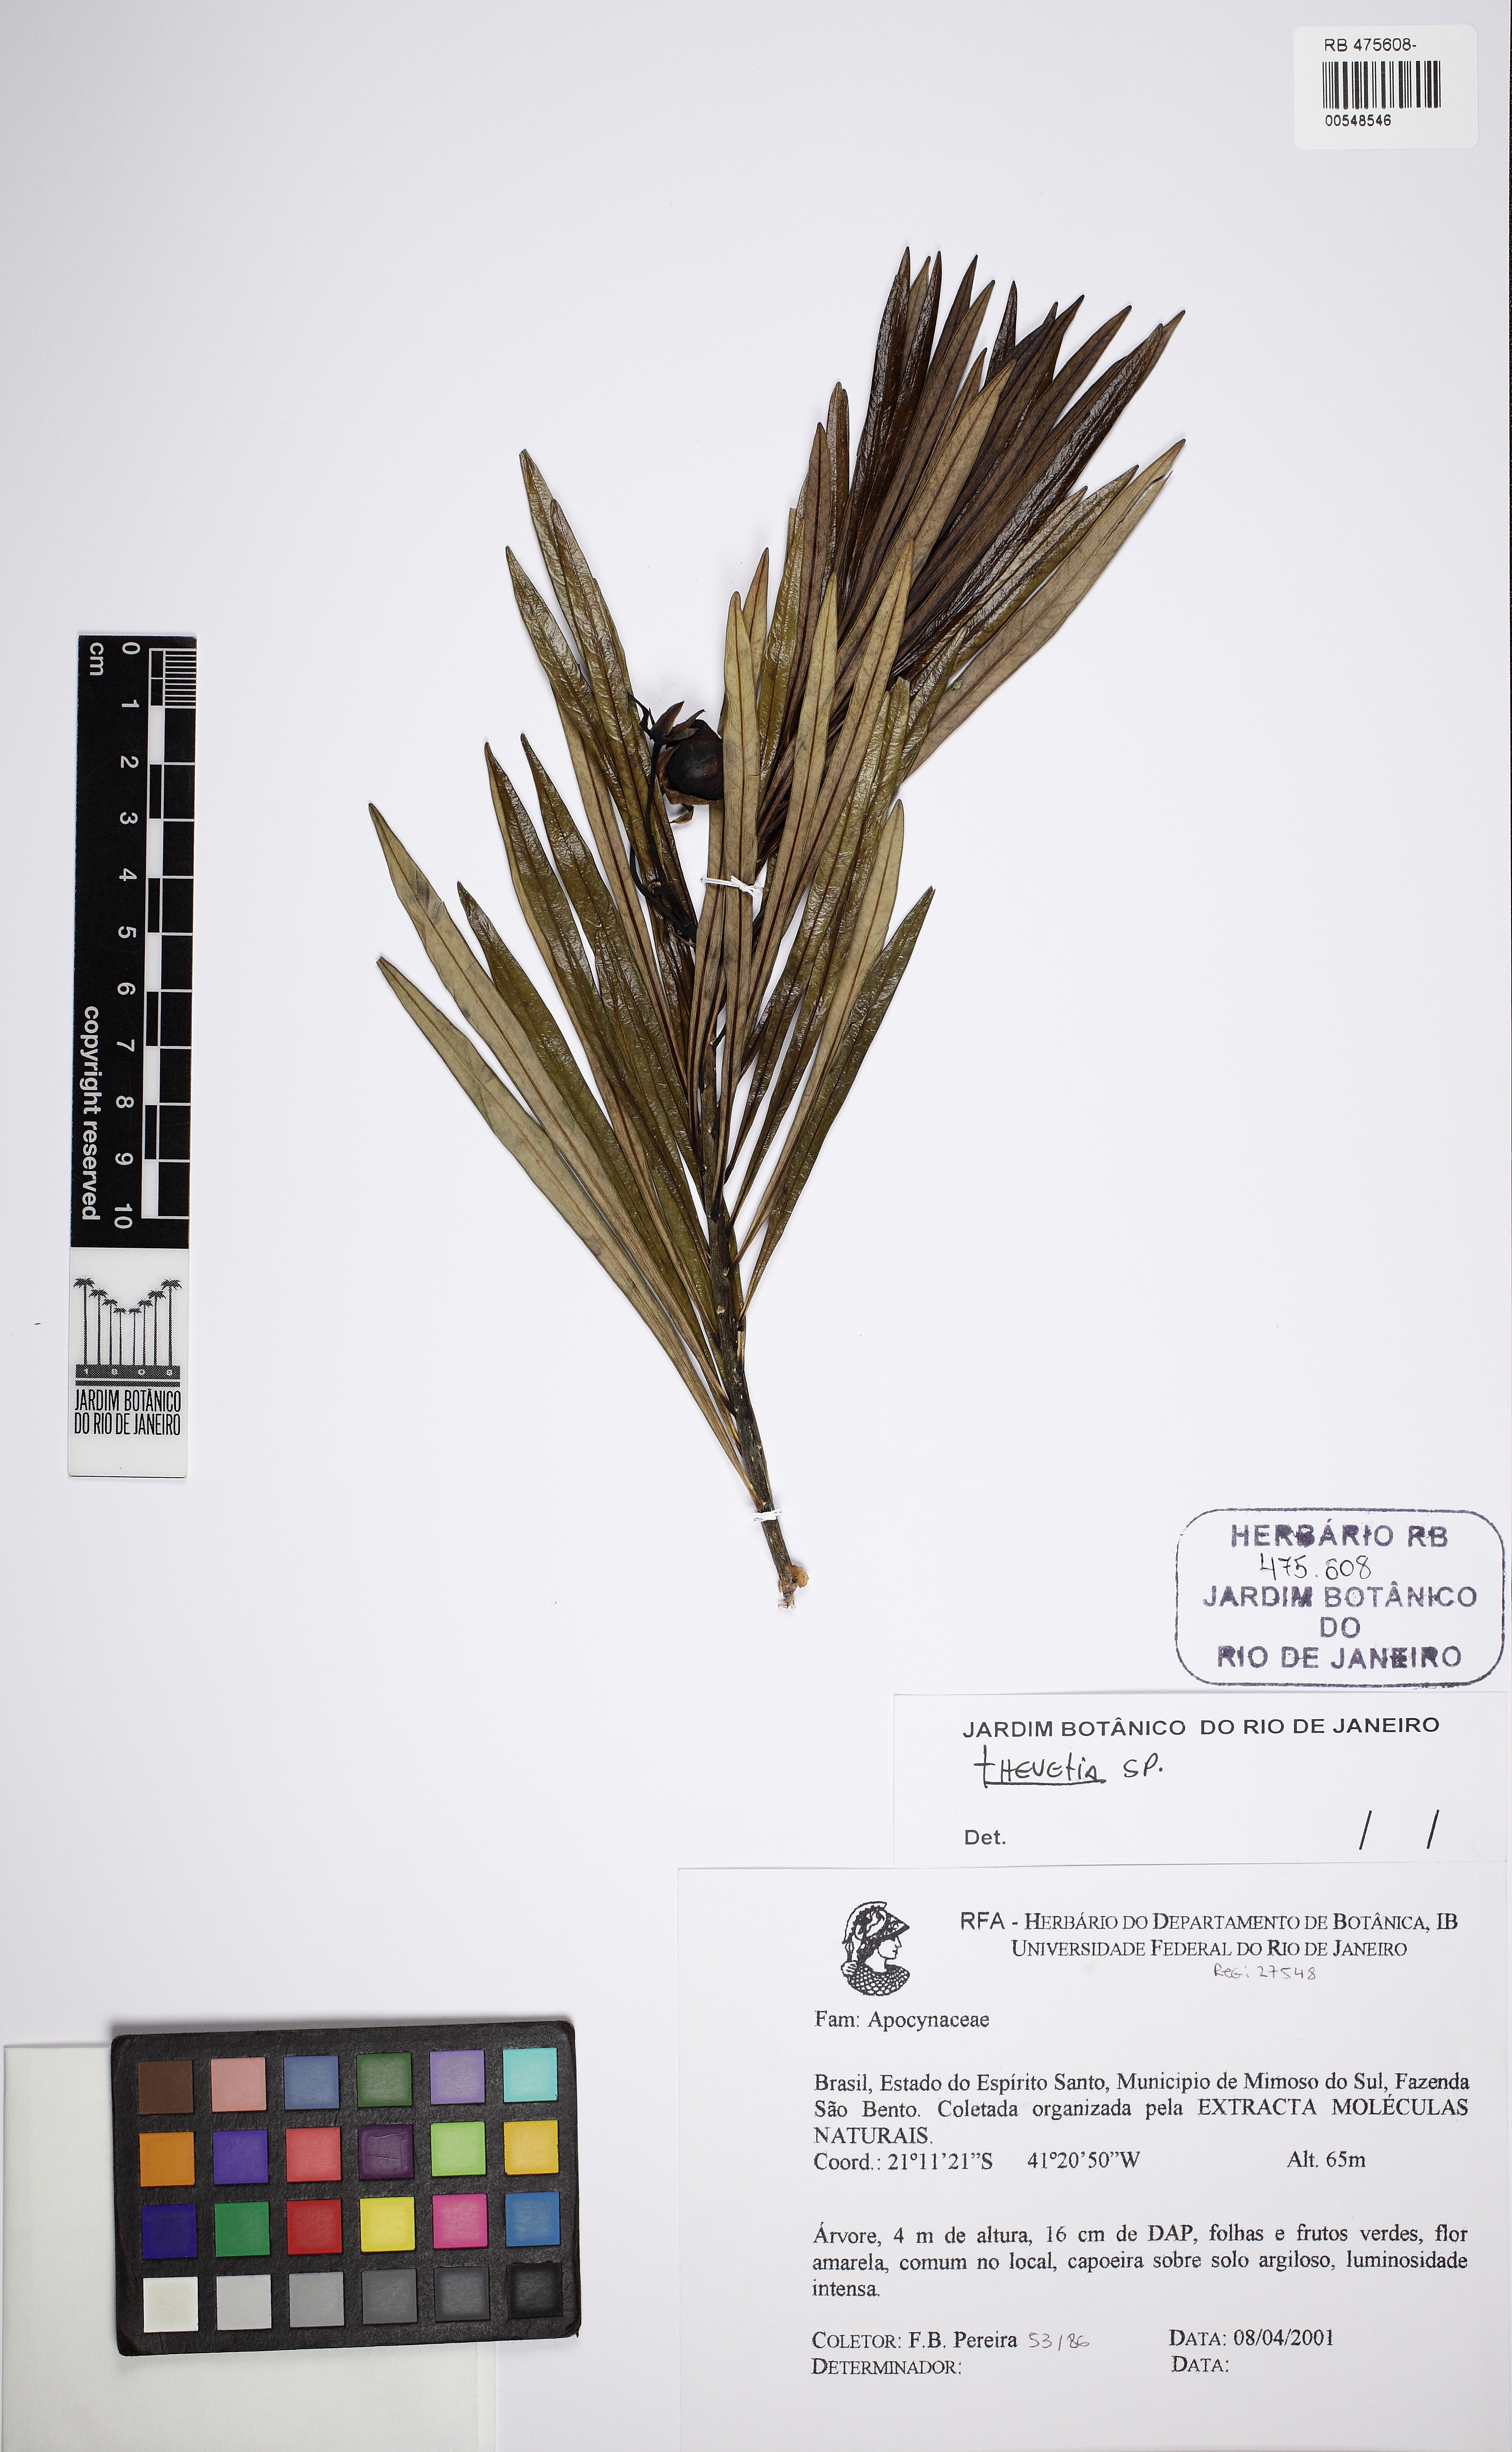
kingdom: Plantae
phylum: Tracheophyta
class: Magnoliopsida
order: Gentianales
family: Apocynaceae
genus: Thevetia
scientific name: Thevetia
